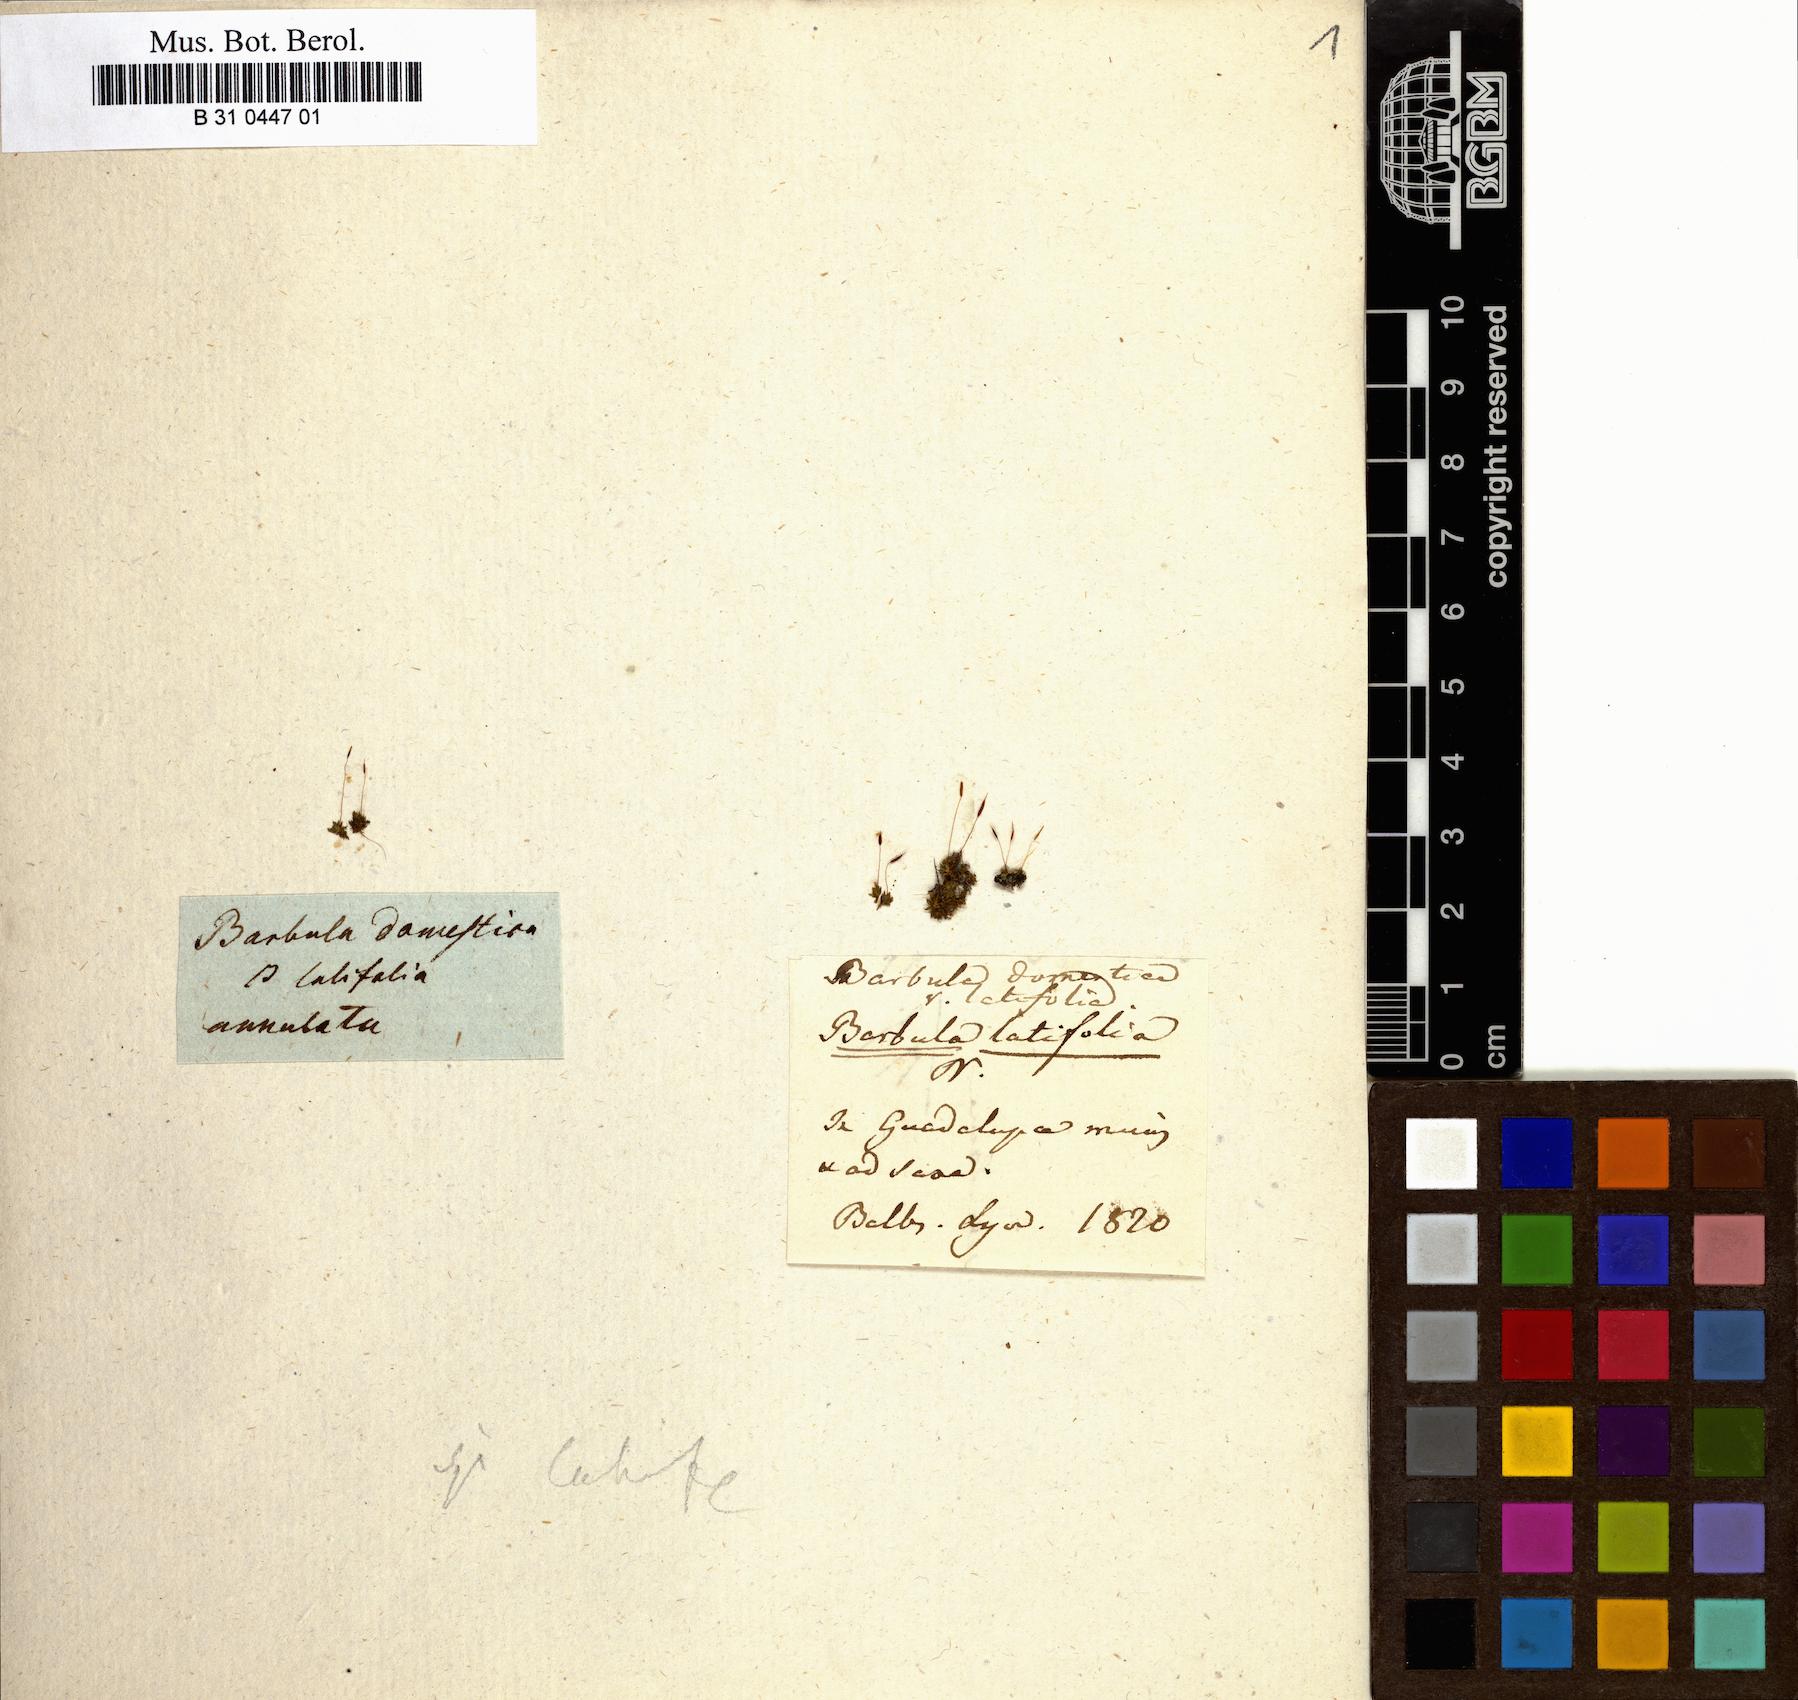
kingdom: Plantae
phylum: Bryophyta
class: Bryopsida
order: Pottiales
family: Pottiaceae
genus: Hyophiladelphus
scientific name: Hyophiladelphus agrarius
